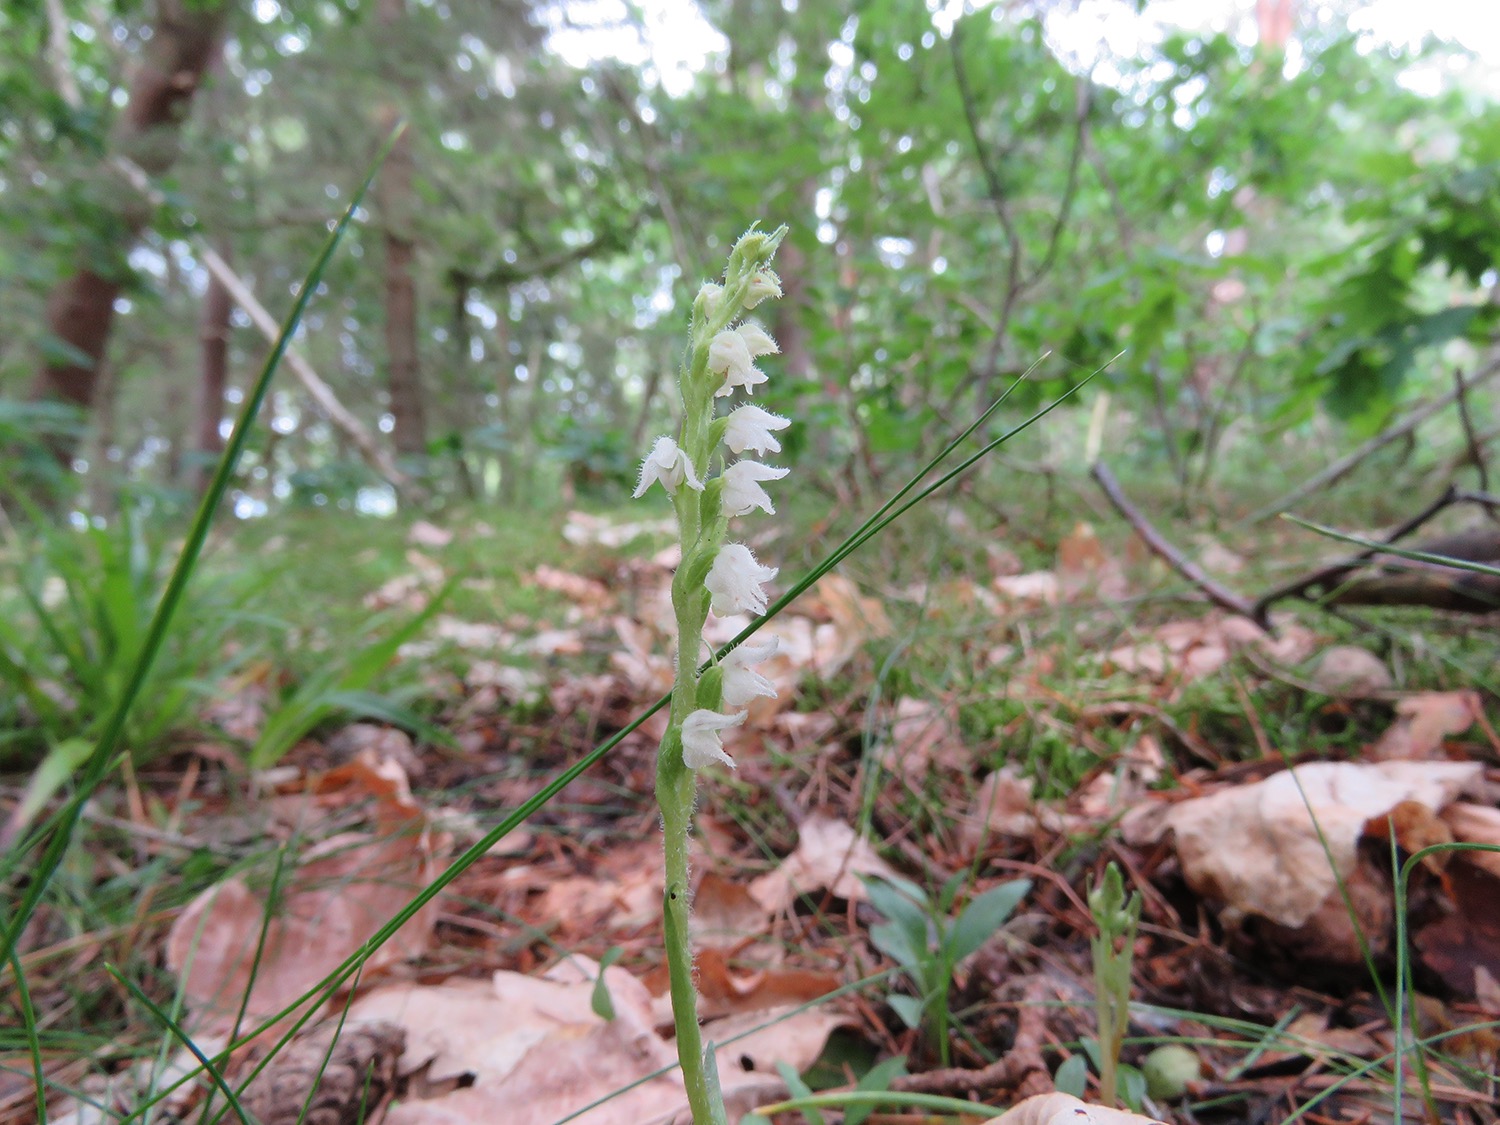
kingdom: Plantae
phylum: Tracheophyta
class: Liliopsida
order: Asparagales
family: Orchidaceae
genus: Goodyera
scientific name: Goodyera repens
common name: Knærod
